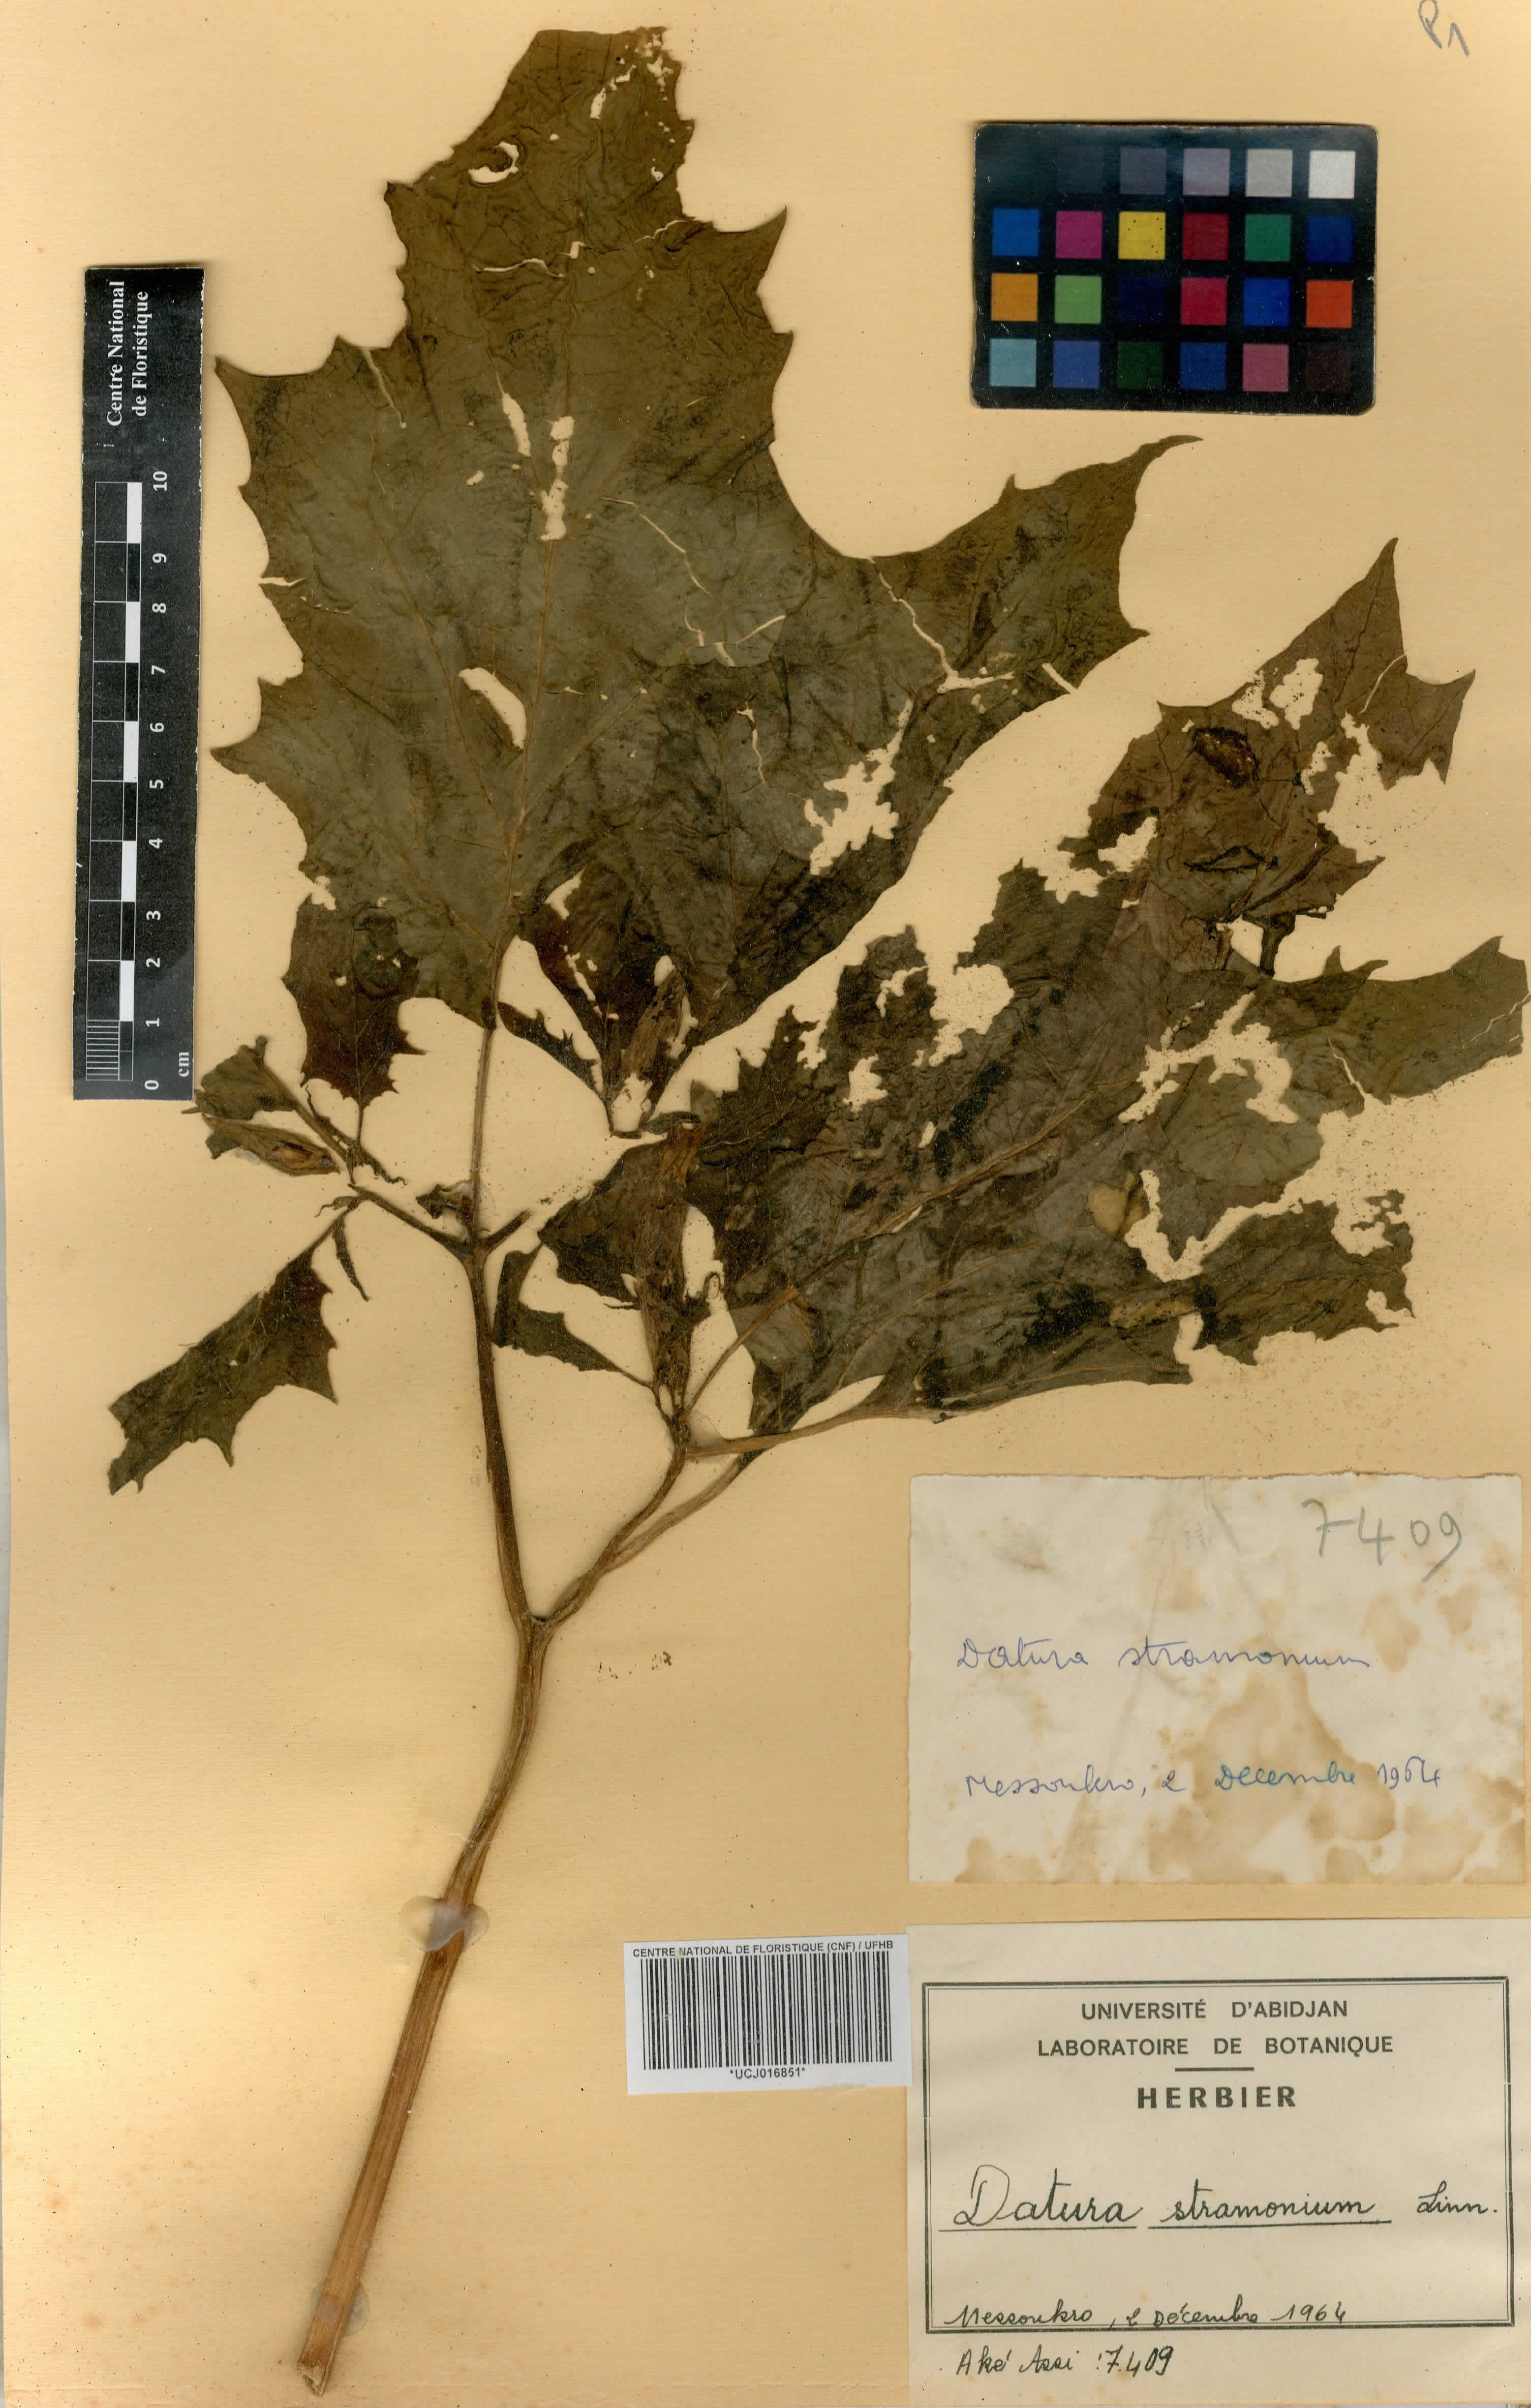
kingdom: Plantae
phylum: Tracheophyta
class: Magnoliopsida
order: Solanales
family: Solanaceae
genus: Datura
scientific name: Datura stramonium
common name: Thorn-apple
